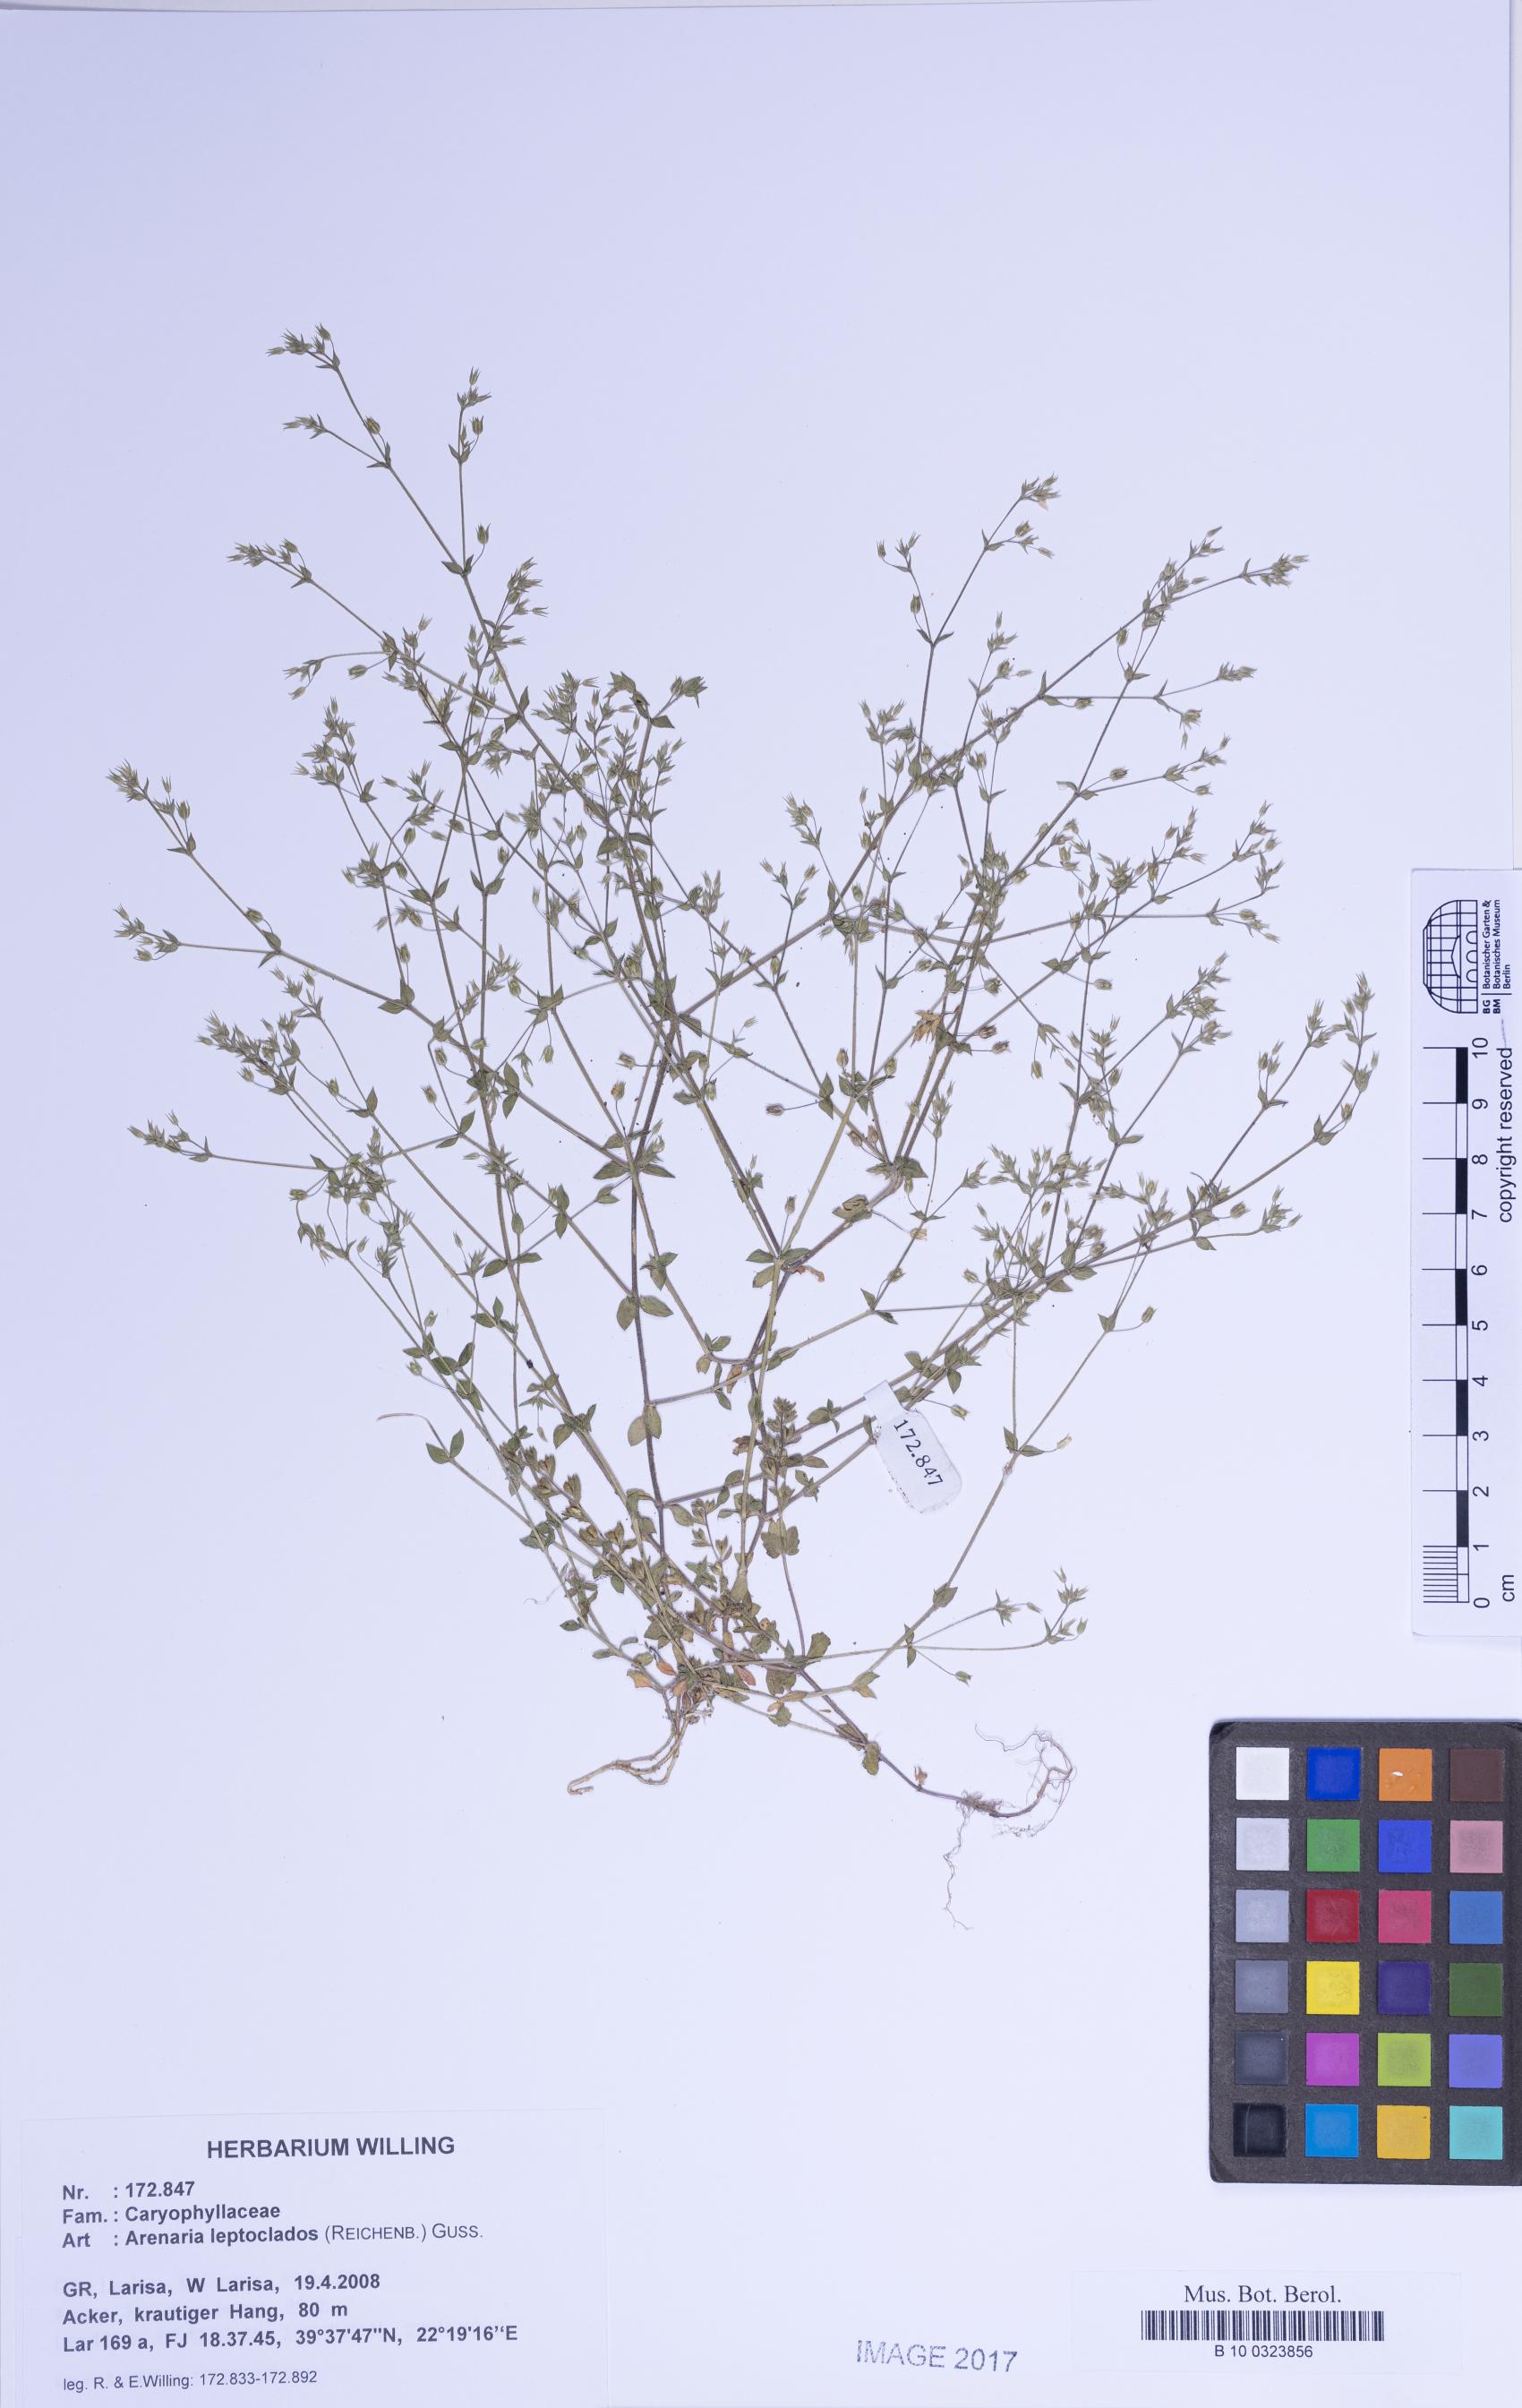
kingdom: Plantae
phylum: Tracheophyta
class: Magnoliopsida
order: Caryophyllales
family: Caryophyllaceae
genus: Arenaria
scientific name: Arenaria leptoclados
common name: Thyme-leaved sandwort
